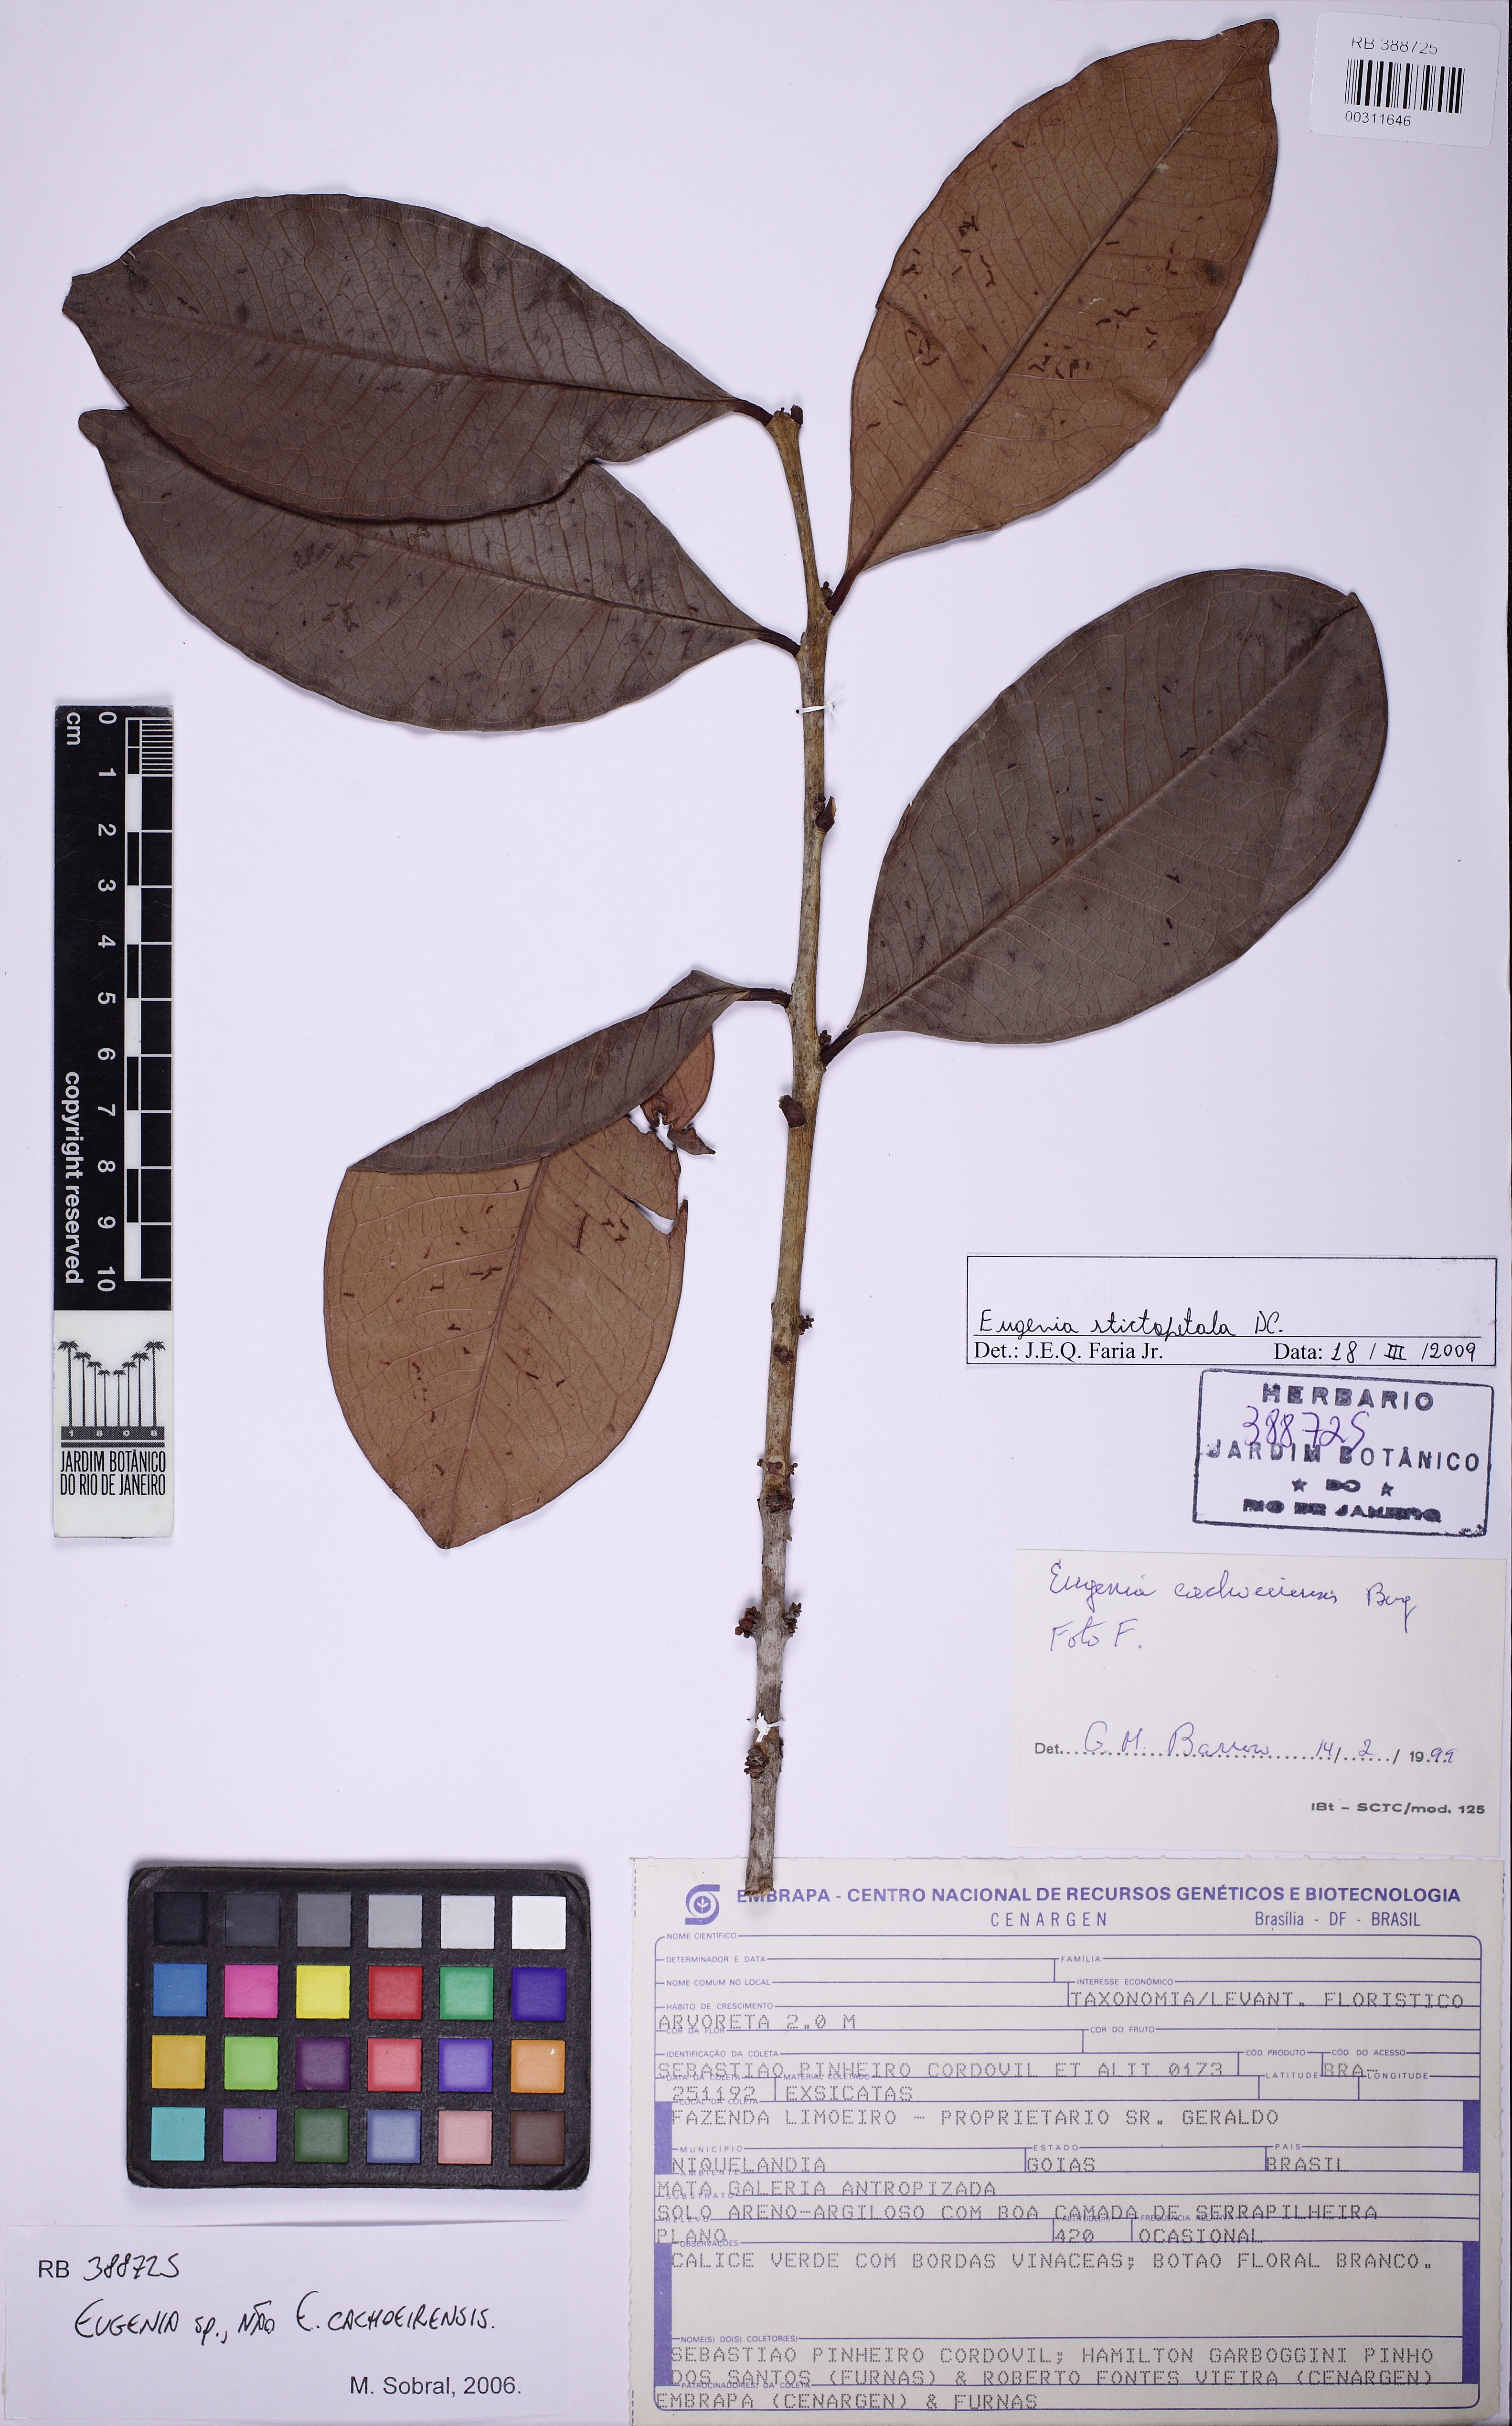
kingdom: Plantae
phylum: Tracheophyta
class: Magnoliopsida
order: Myrtales
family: Myrtaceae
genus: Eugenia
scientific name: Eugenia stictopetala
